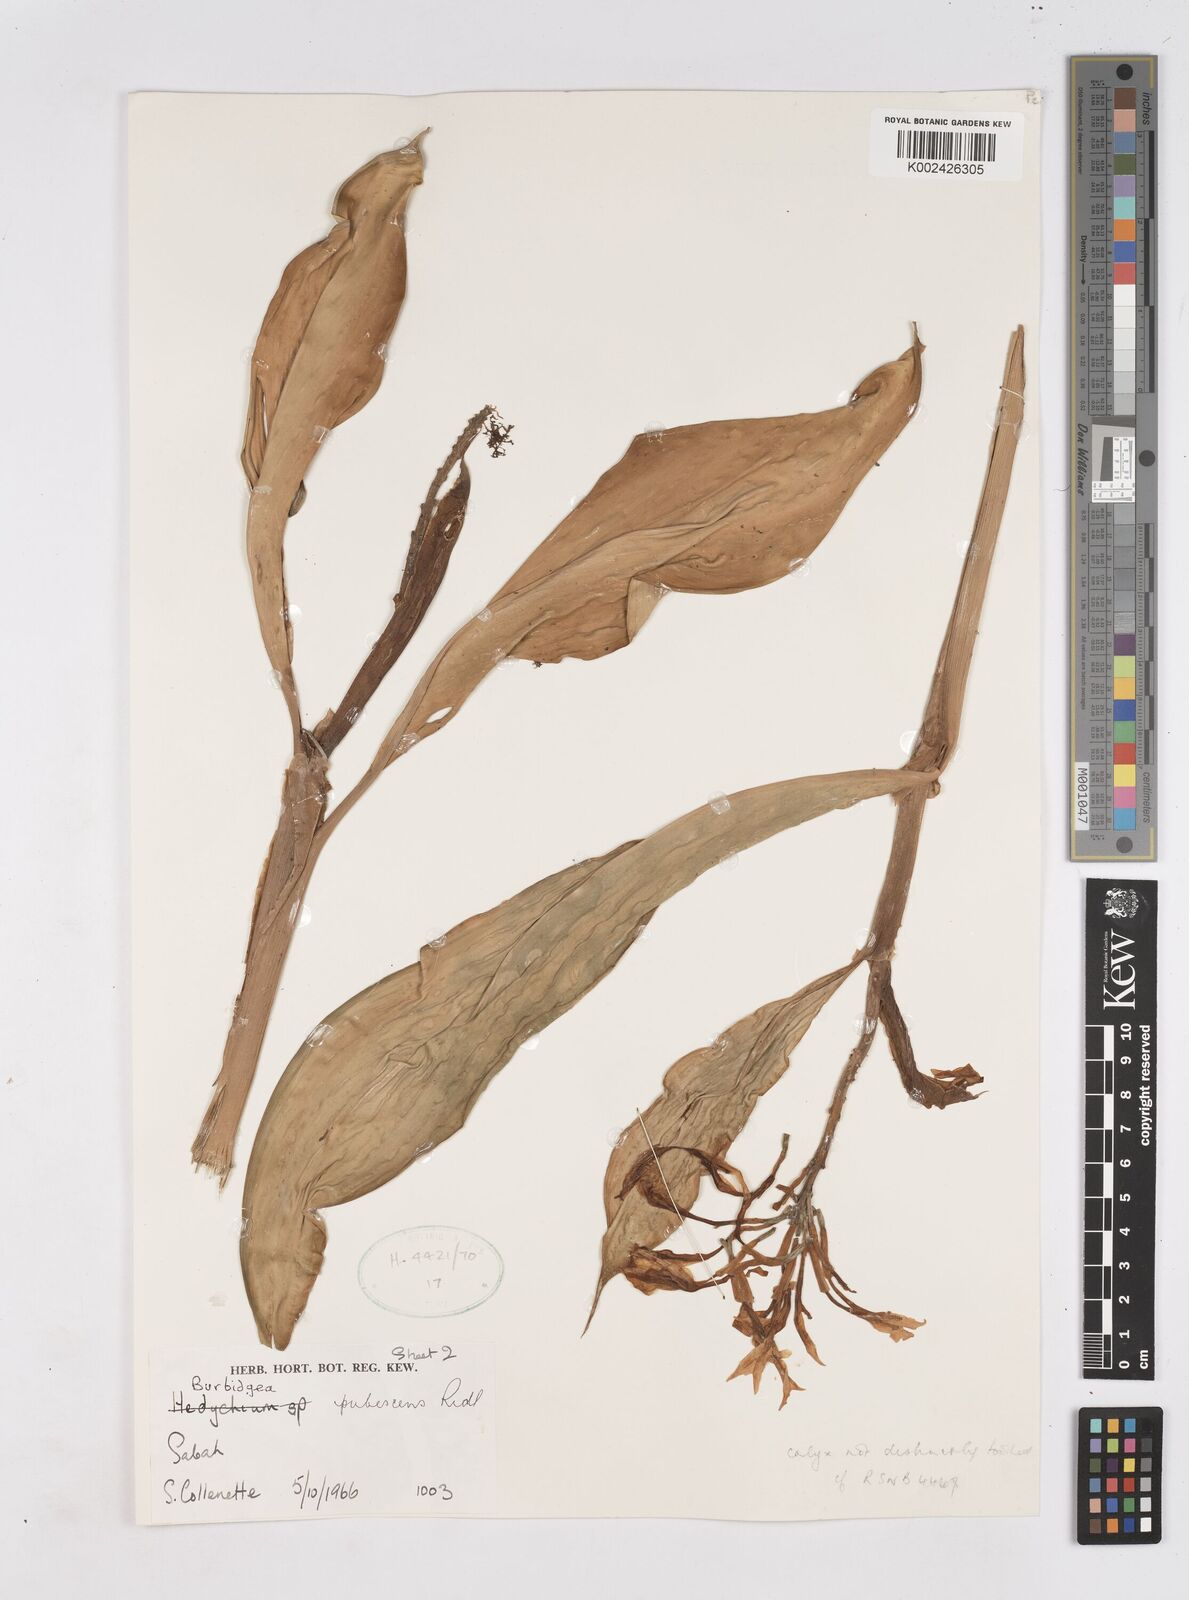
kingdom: Plantae
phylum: Tracheophyta
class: Liliopsida
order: Zingiberales
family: Zingiberaceae
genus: Burbidgea
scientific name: Burbidgea schizocheila
